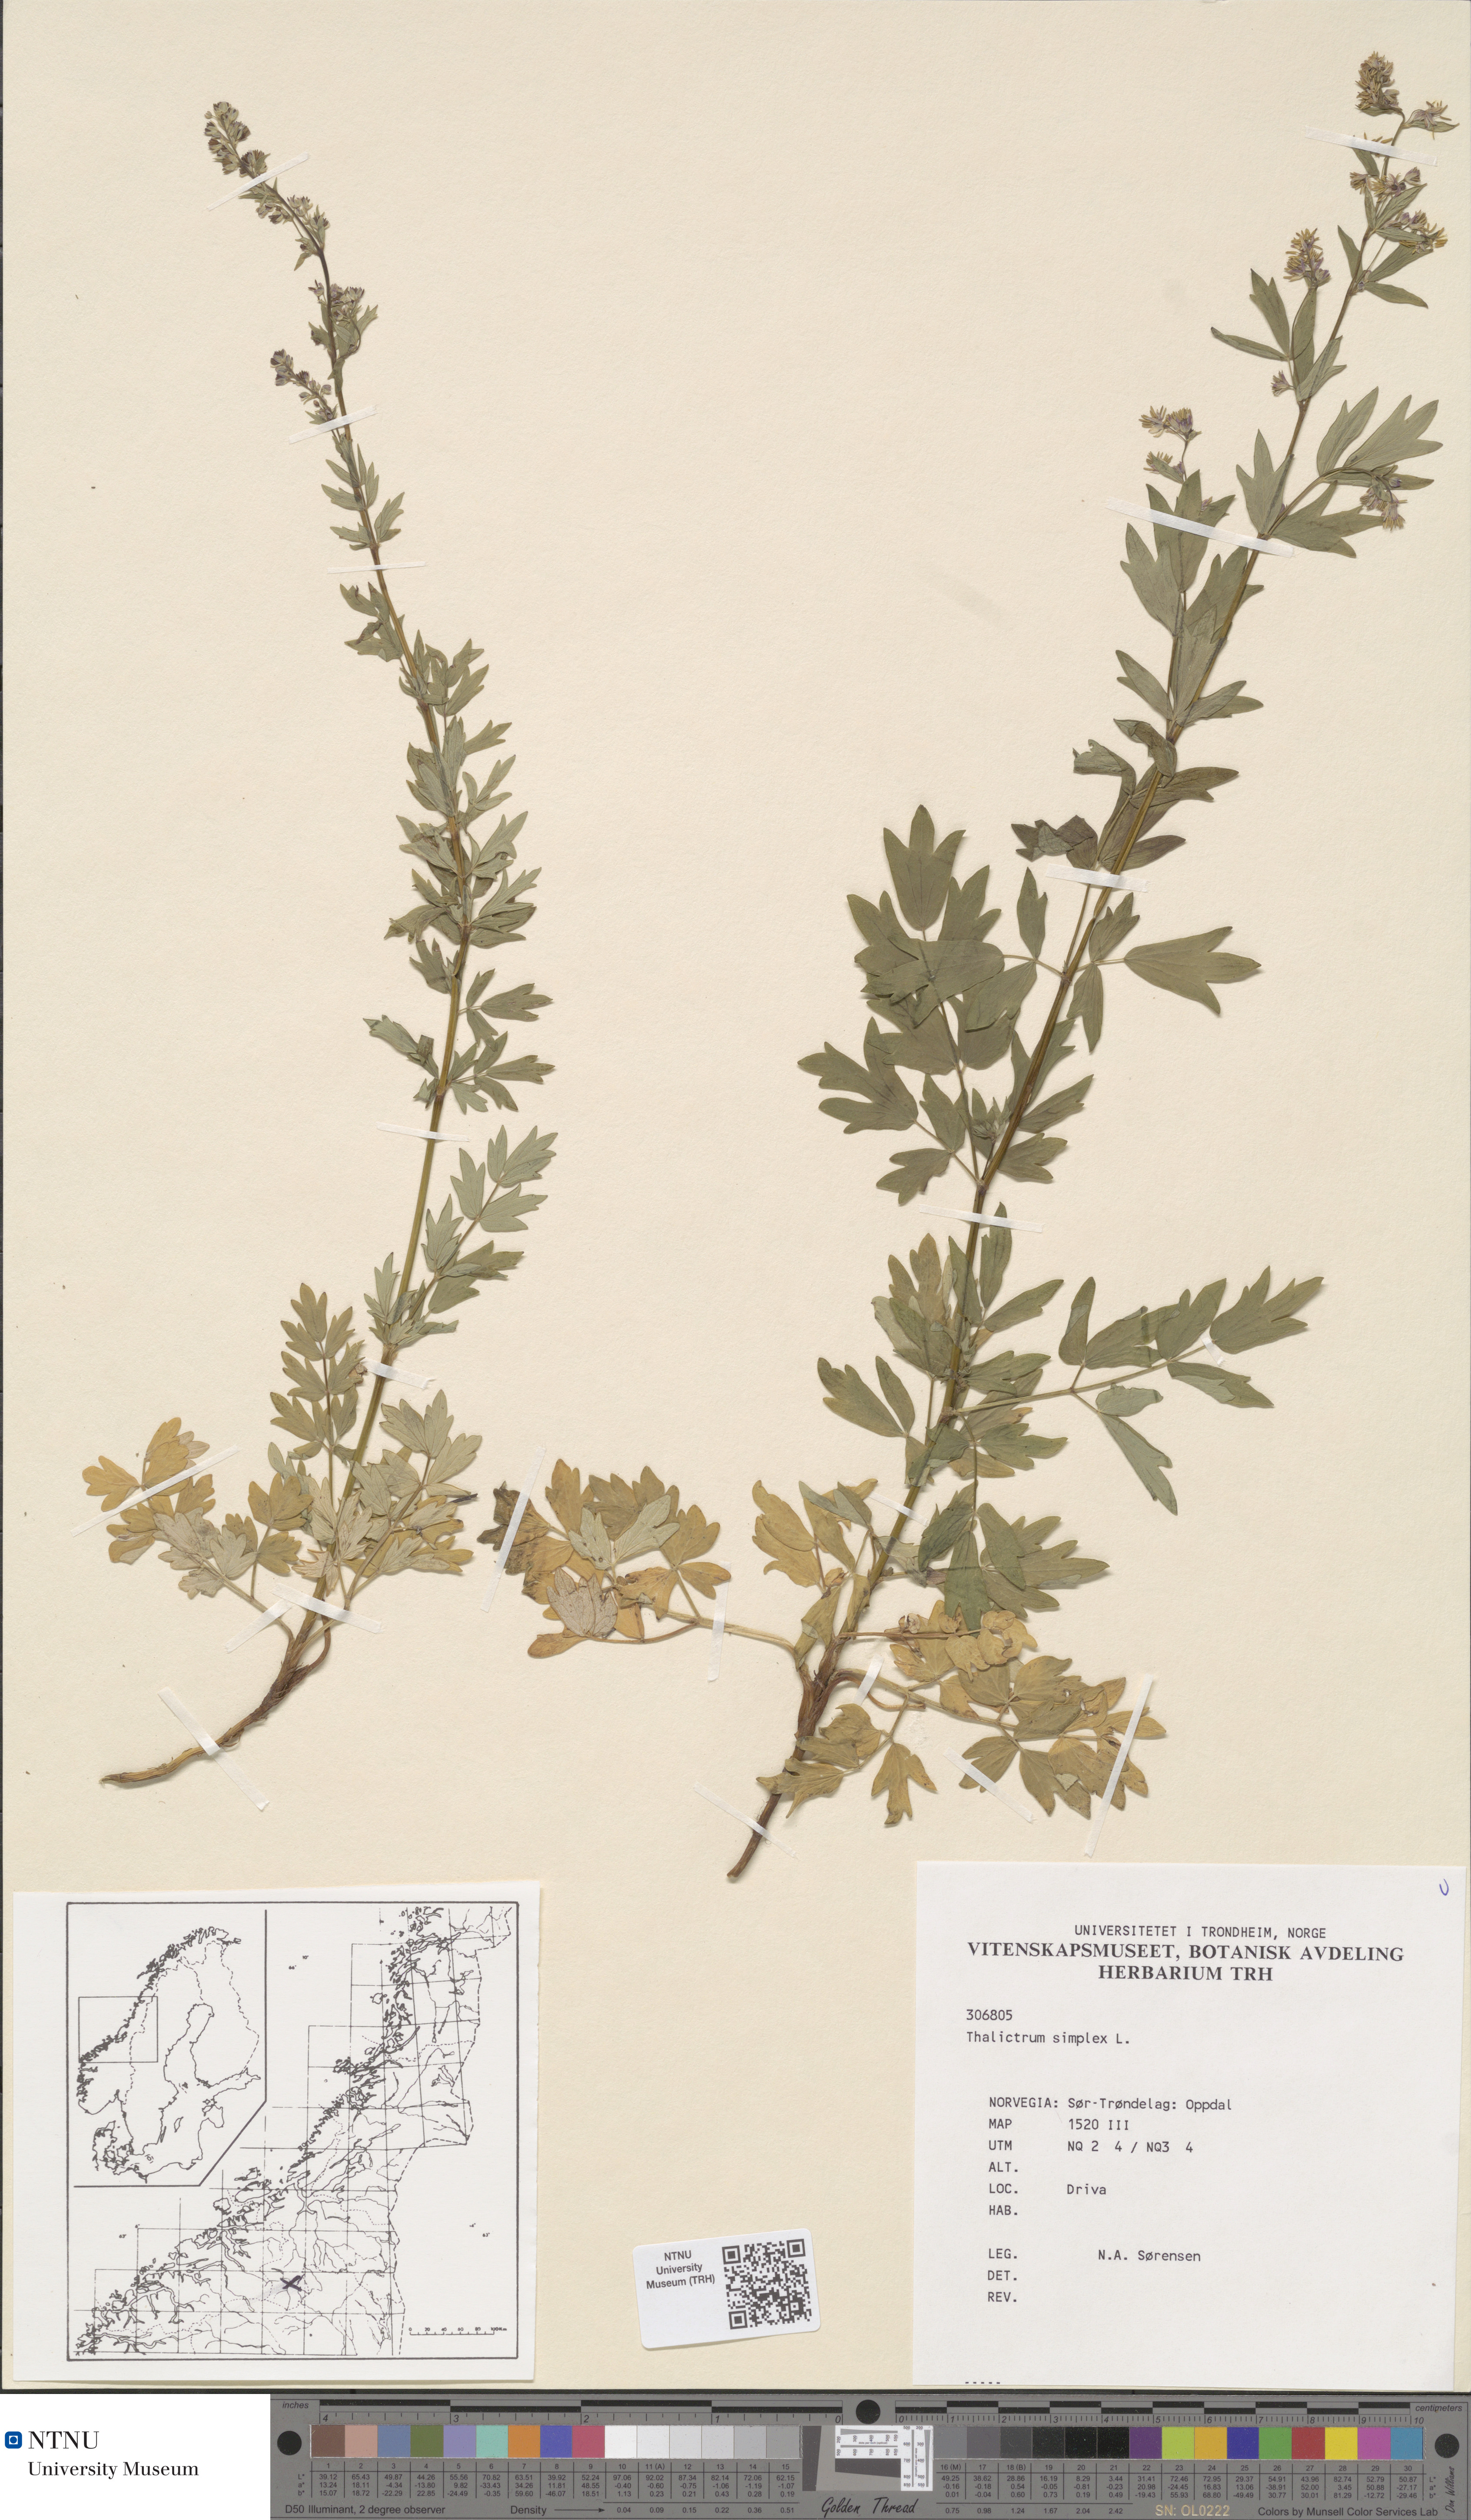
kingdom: Plantae
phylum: Tracheophyta
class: Magnoliopsida
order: Ranunculales
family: Ranunculaceae
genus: Thalictrum
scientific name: Thalictrum simplex
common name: Small meadow-rue
